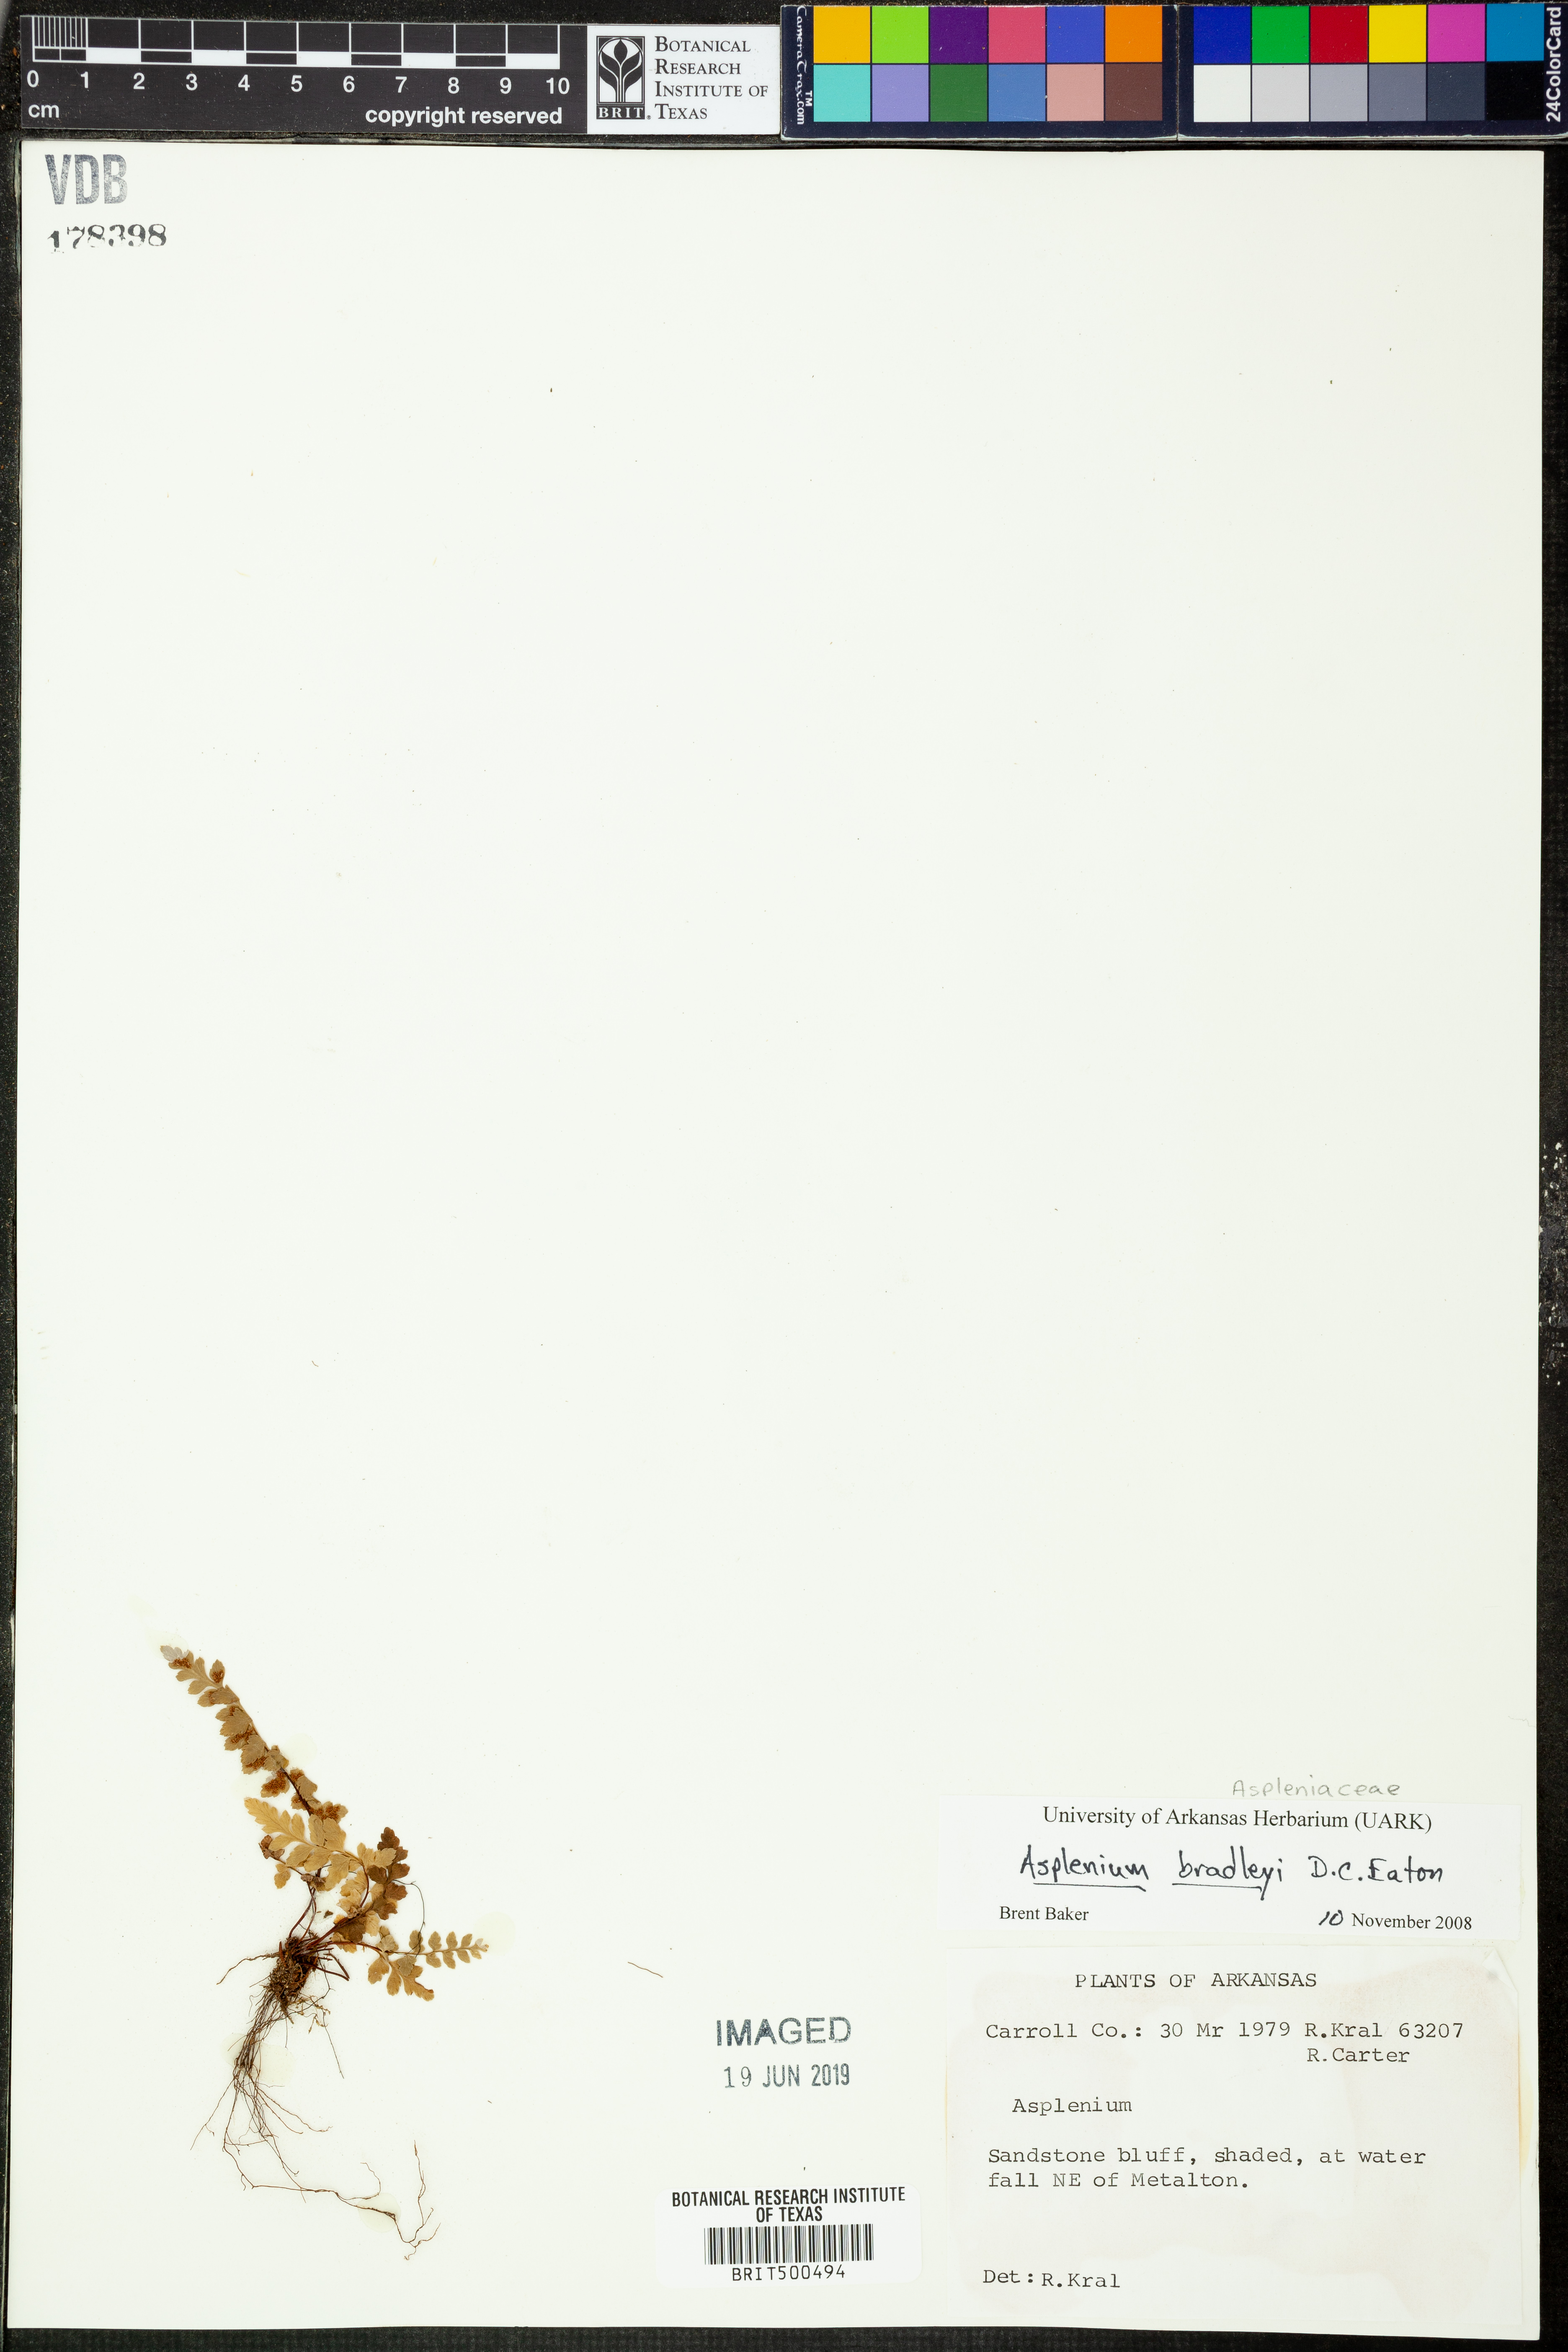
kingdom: Plantae
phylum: Tracheophyta
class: Polypodiopsida
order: Polypodiales
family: Aspleniaceae
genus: Asplenium
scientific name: Asplenium bradleyi
